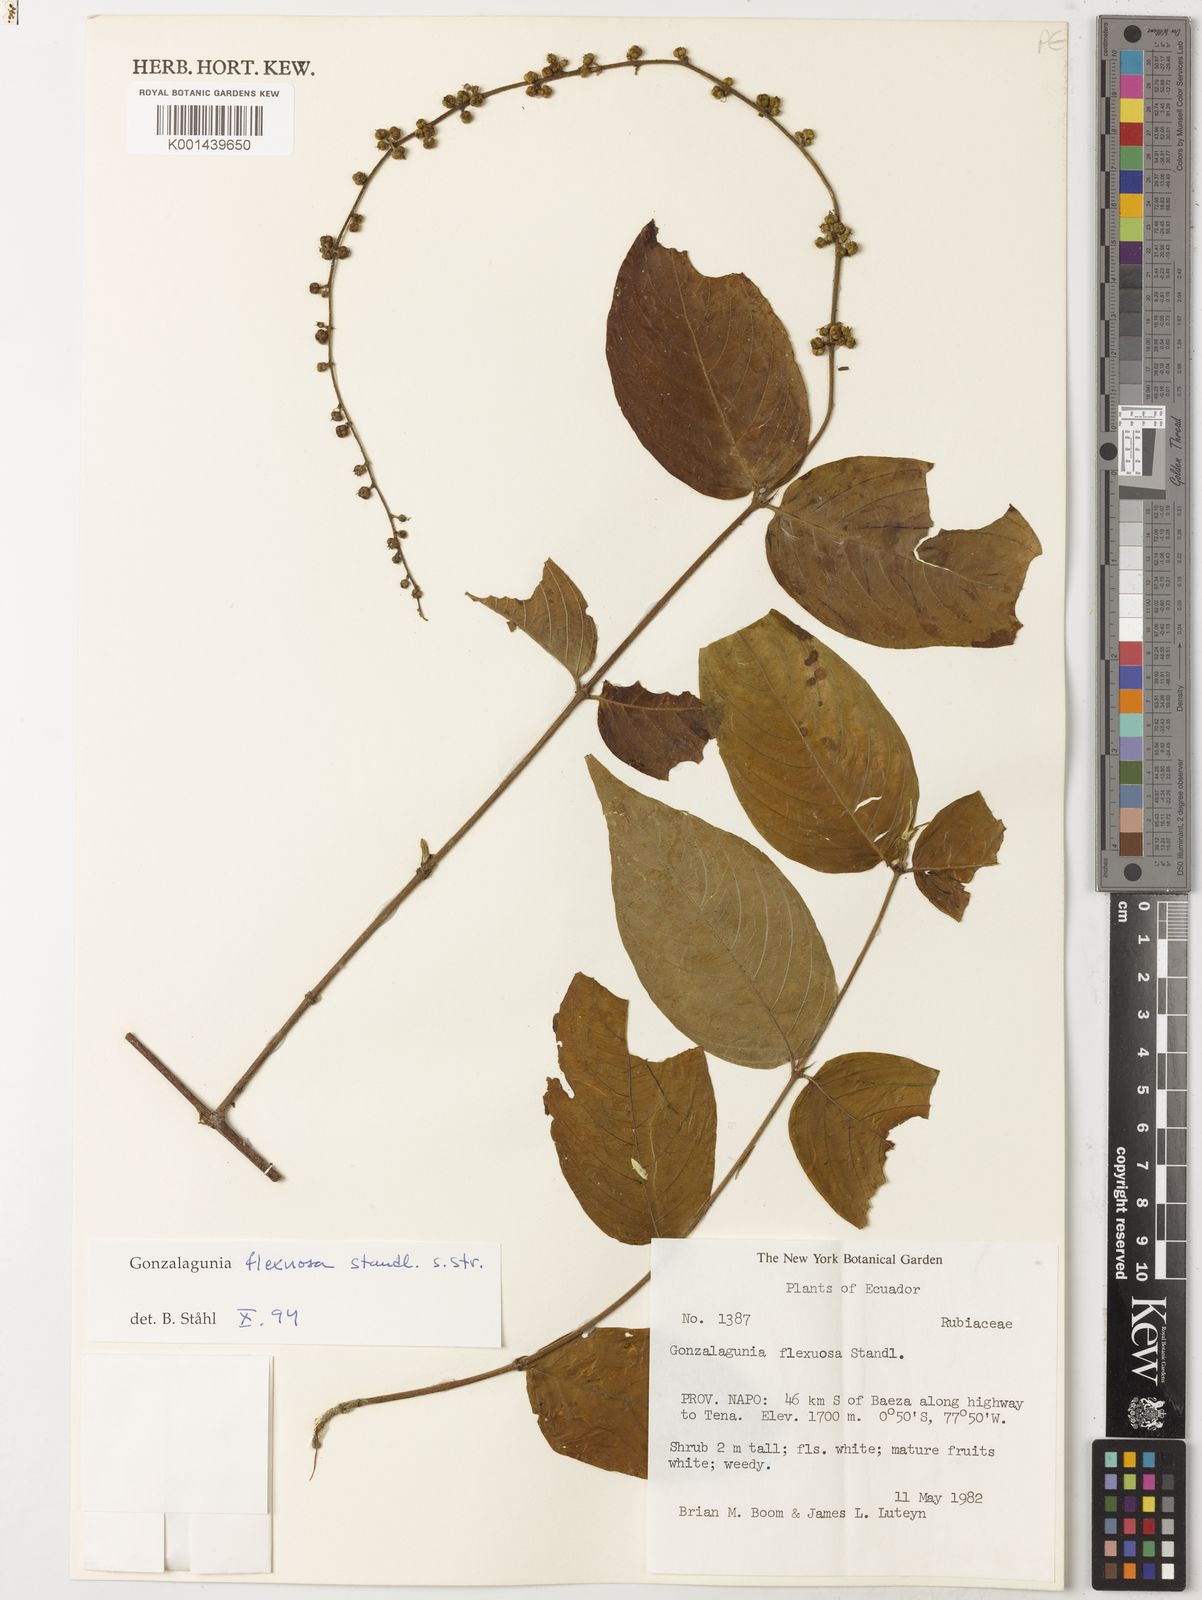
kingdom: Plantae
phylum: Tracheophyta
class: Magnoliopsida
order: Gentianales
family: Rubiaceae
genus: Gonzalagunia
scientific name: Gonzalagunia cornifolia
